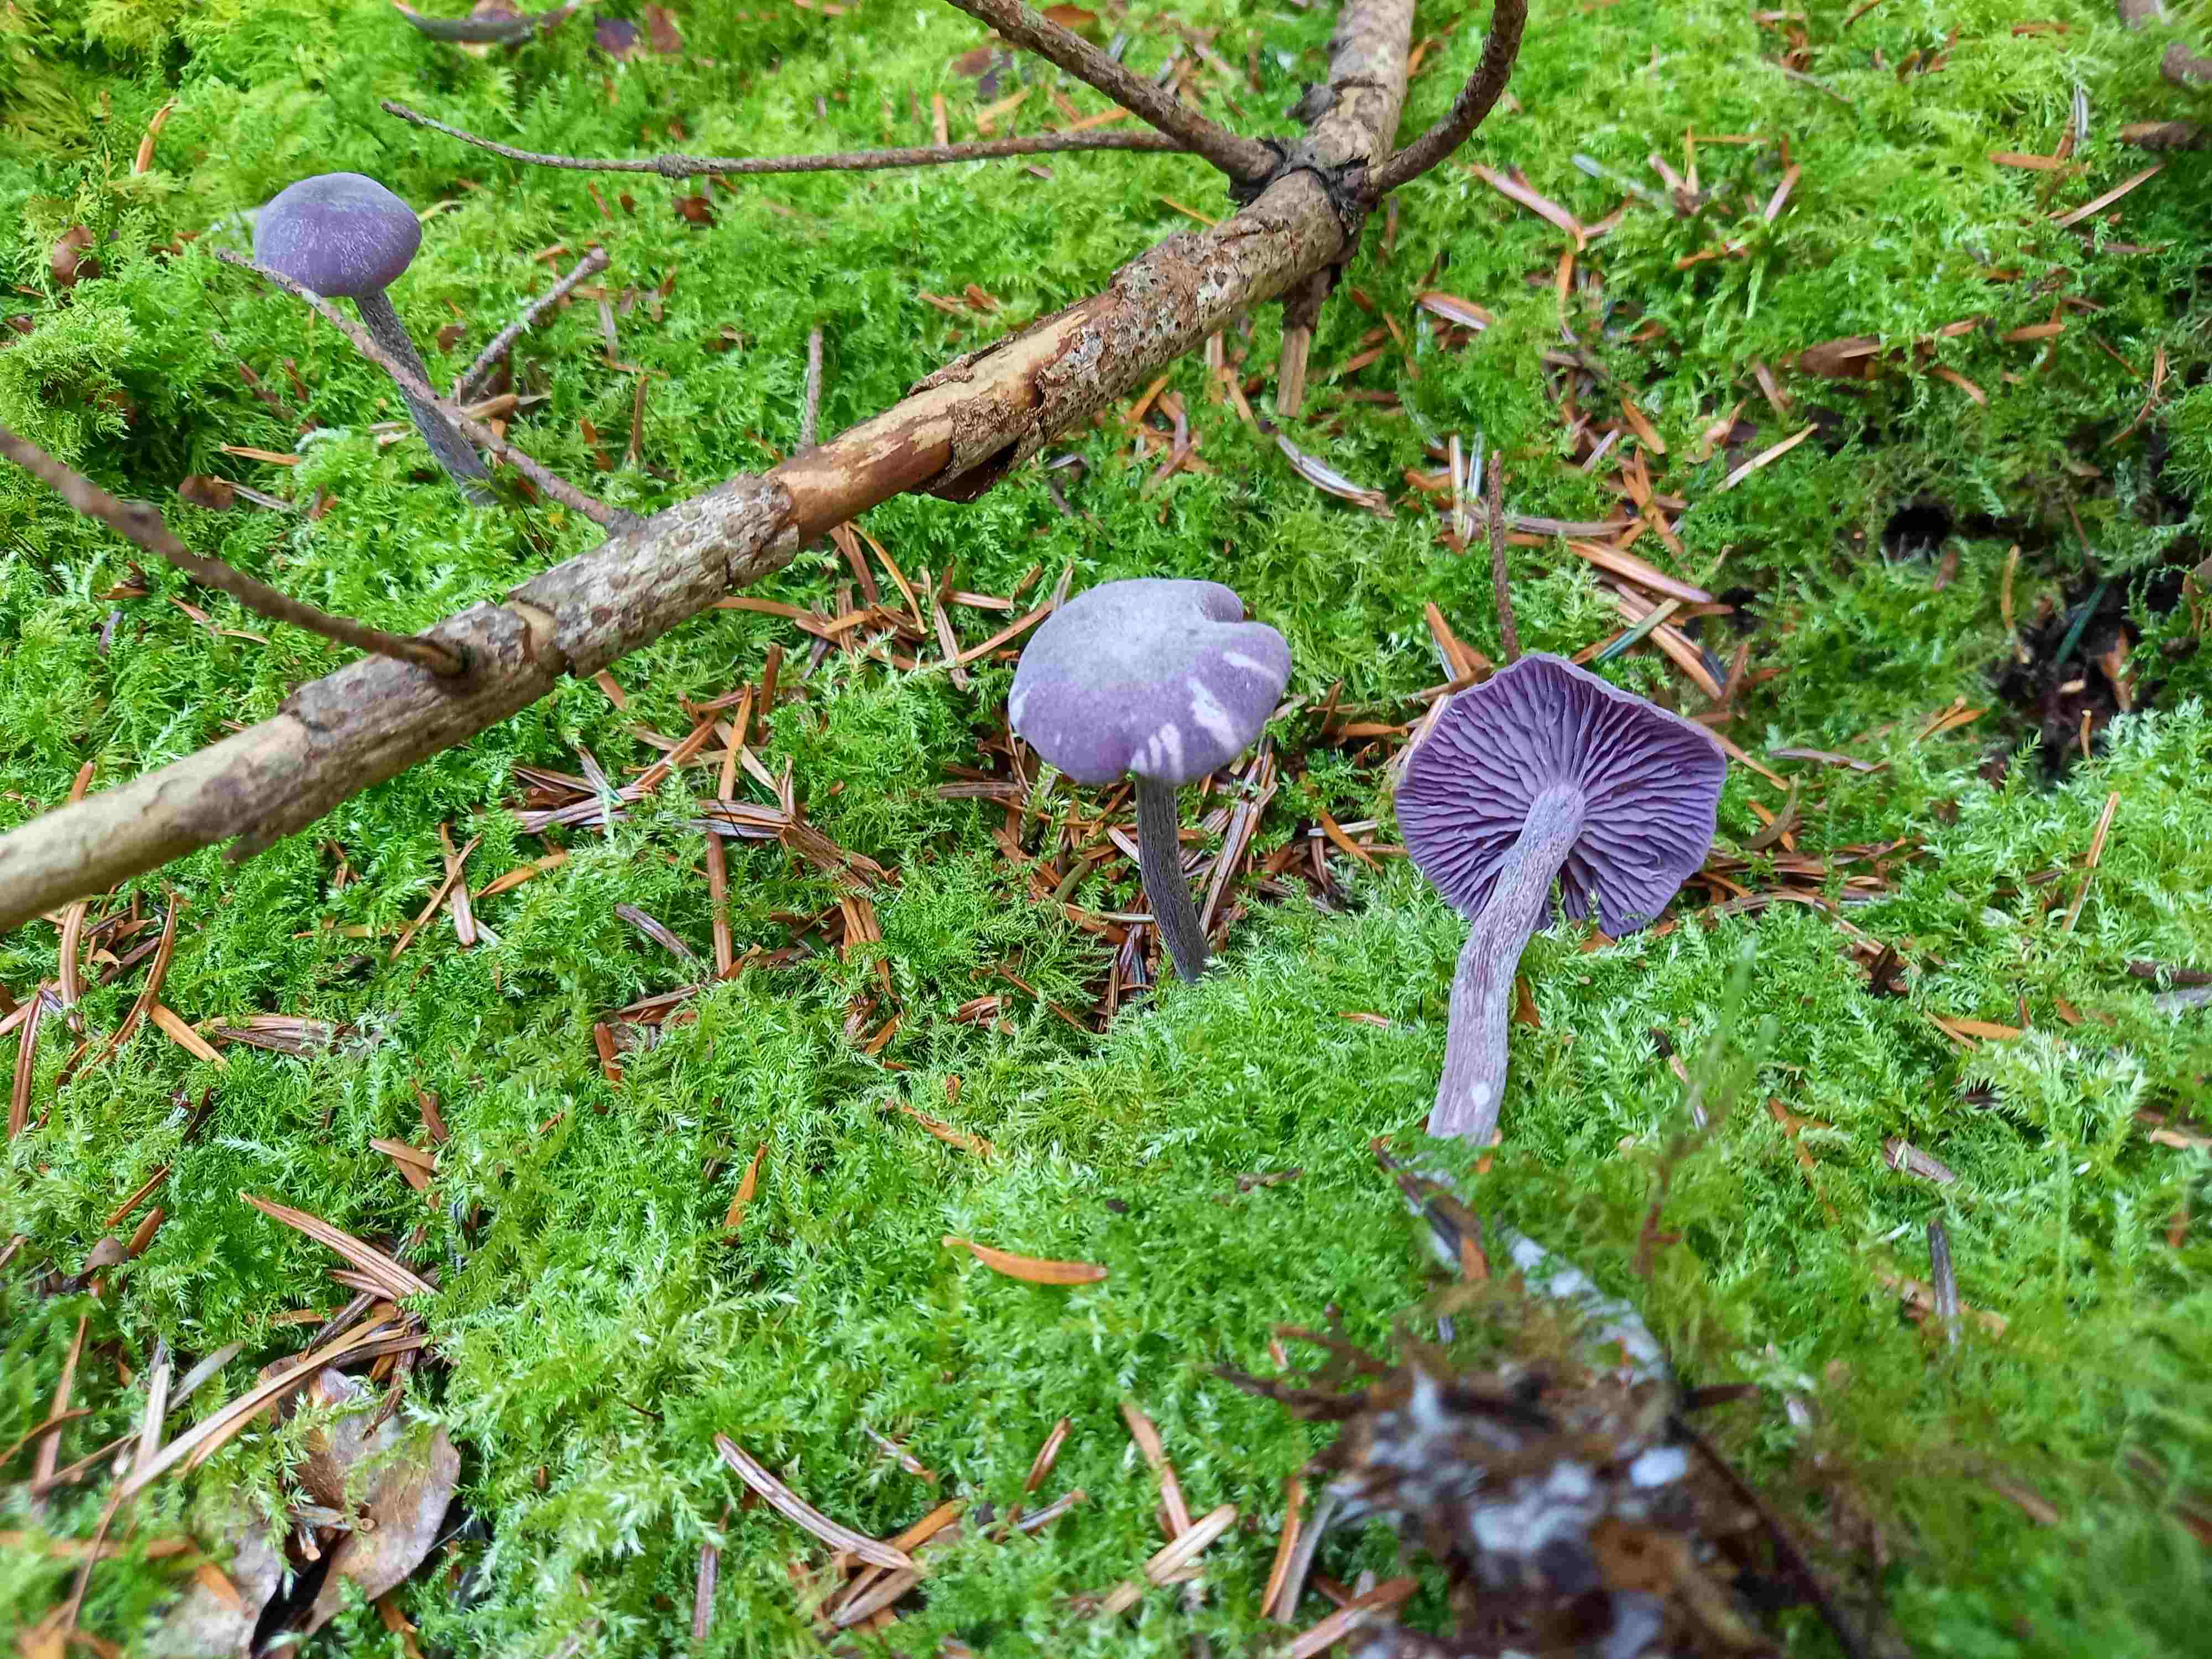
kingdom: Fungi
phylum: Basidiomycota
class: Agaricomycetes
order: Agaricales
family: Hydnangiaceae
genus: Laccaria
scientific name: Laccaria amethystina
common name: violet ametysthat
